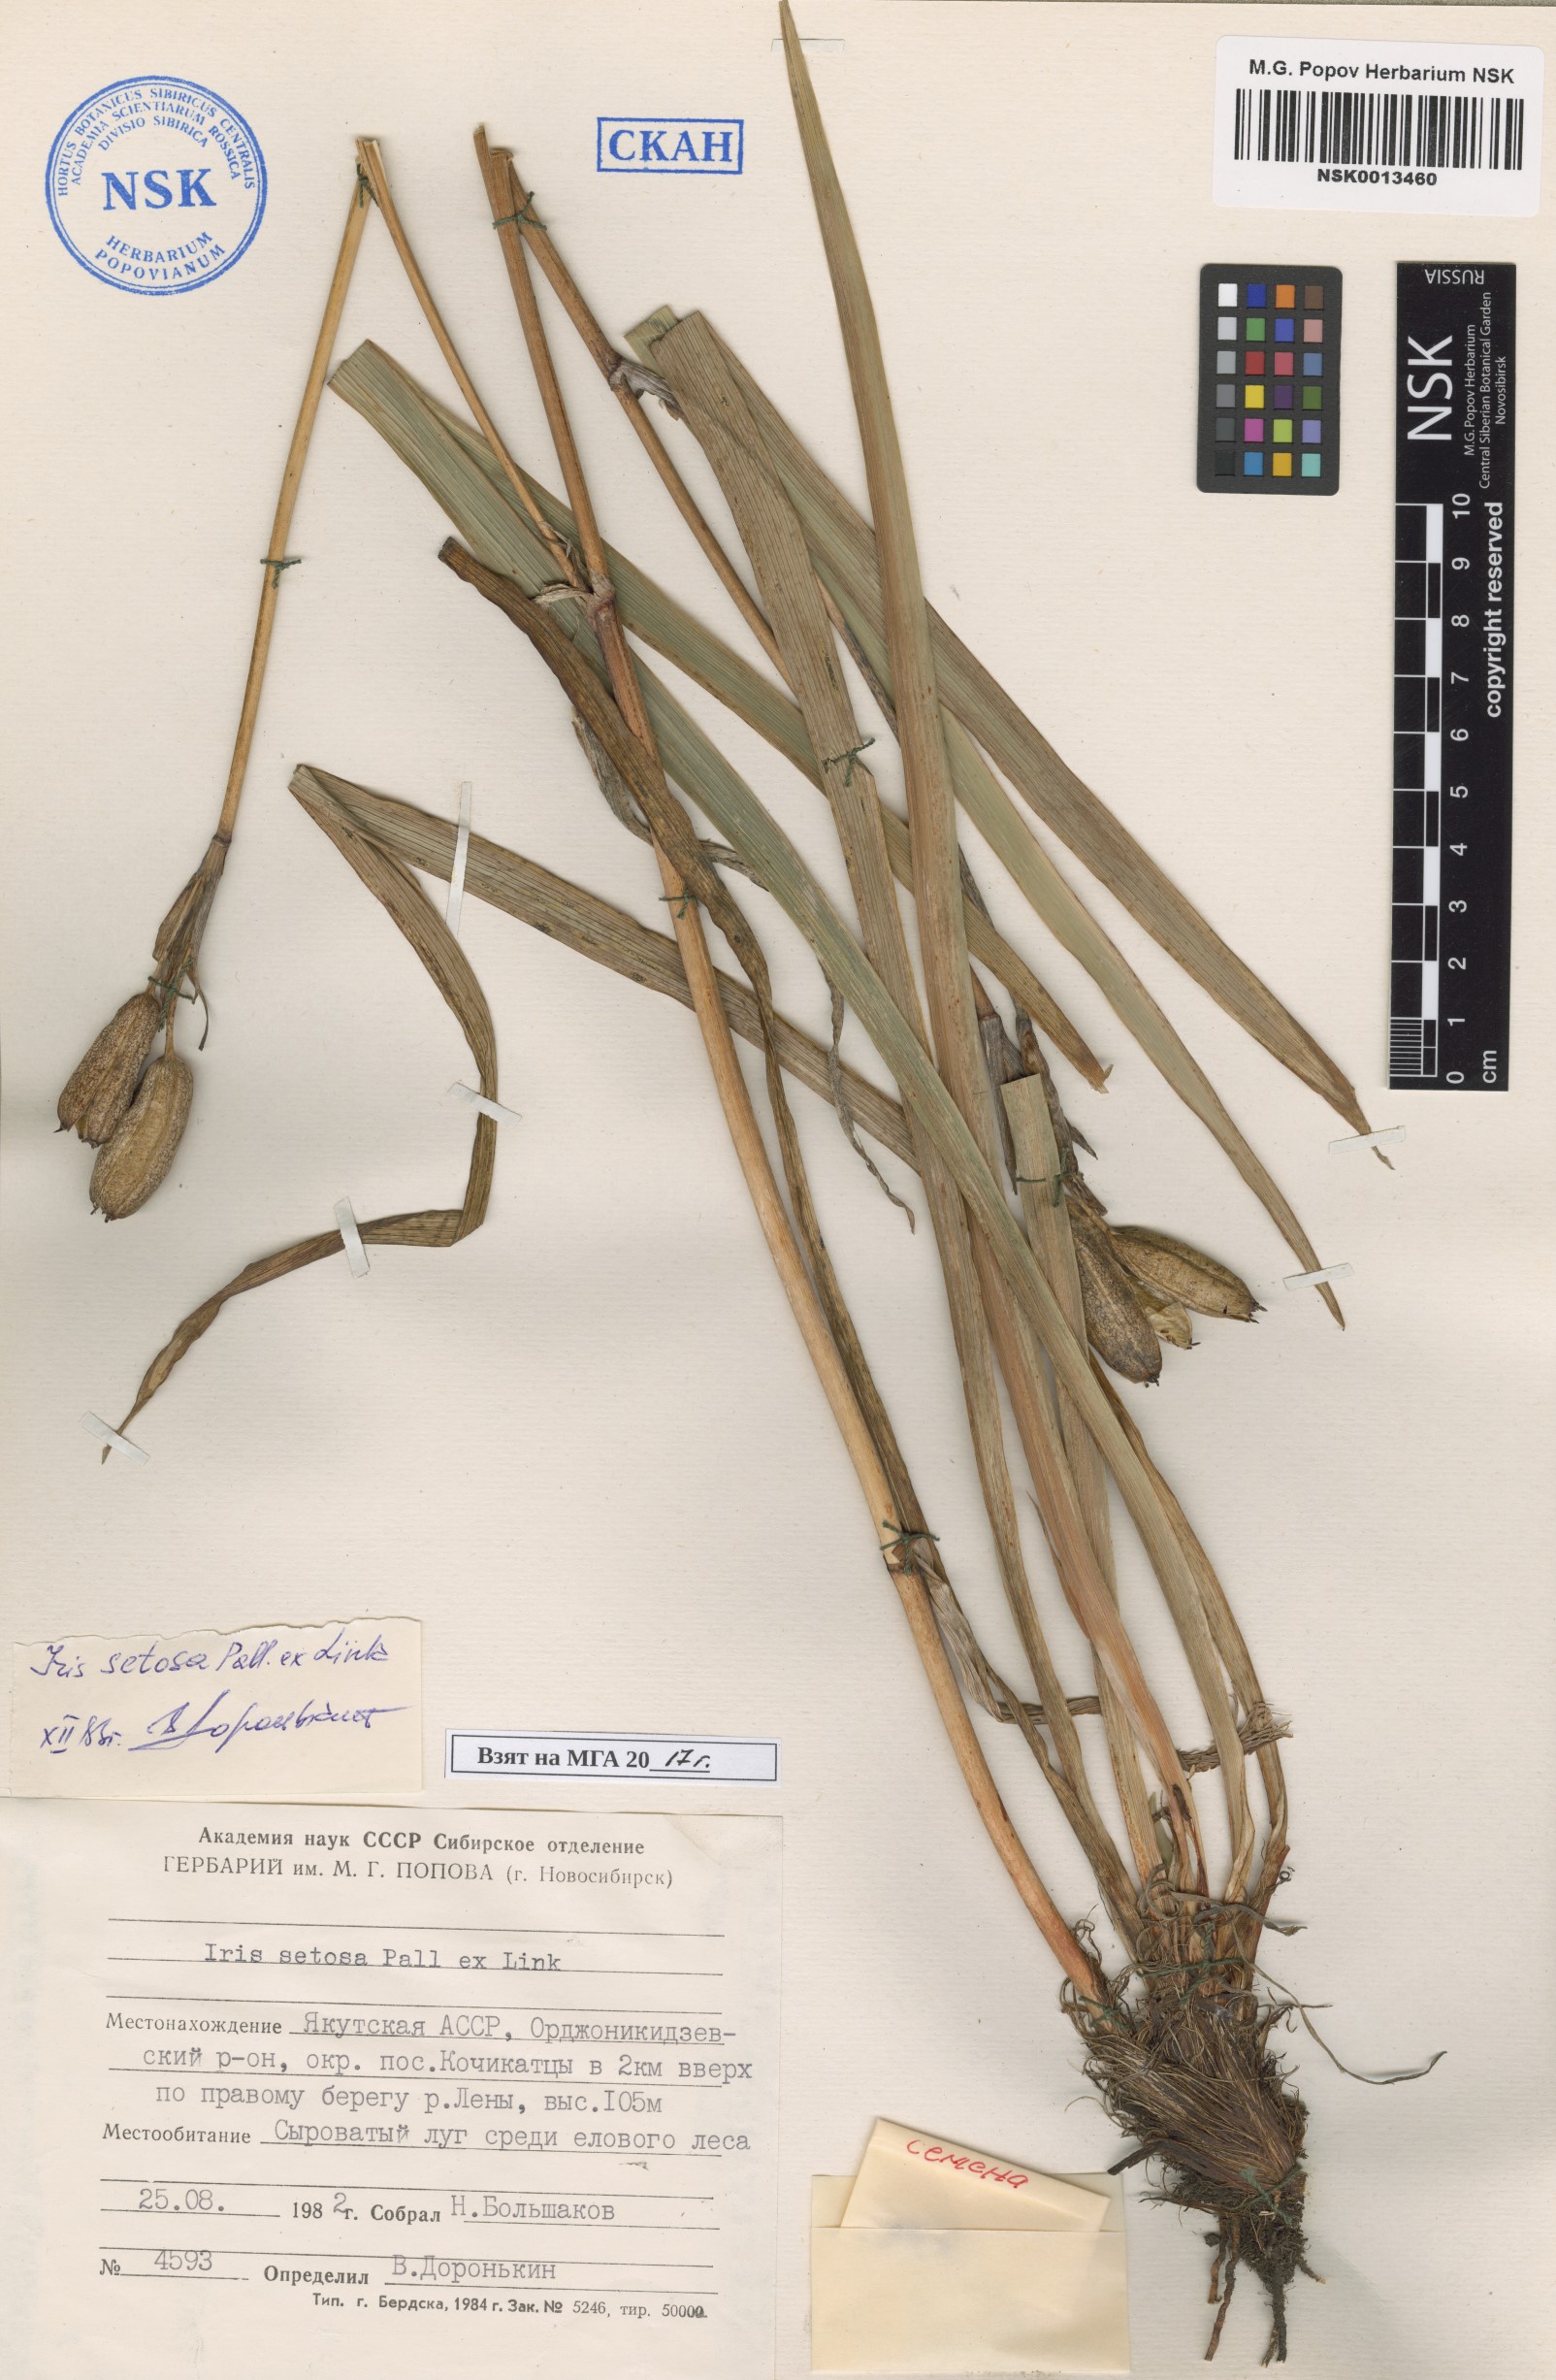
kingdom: Plantae
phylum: Tracheophyta
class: Liliopsida
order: Asparagales
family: Iridaceae
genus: Iris
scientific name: Iris setosa
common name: Arctic blue flag
